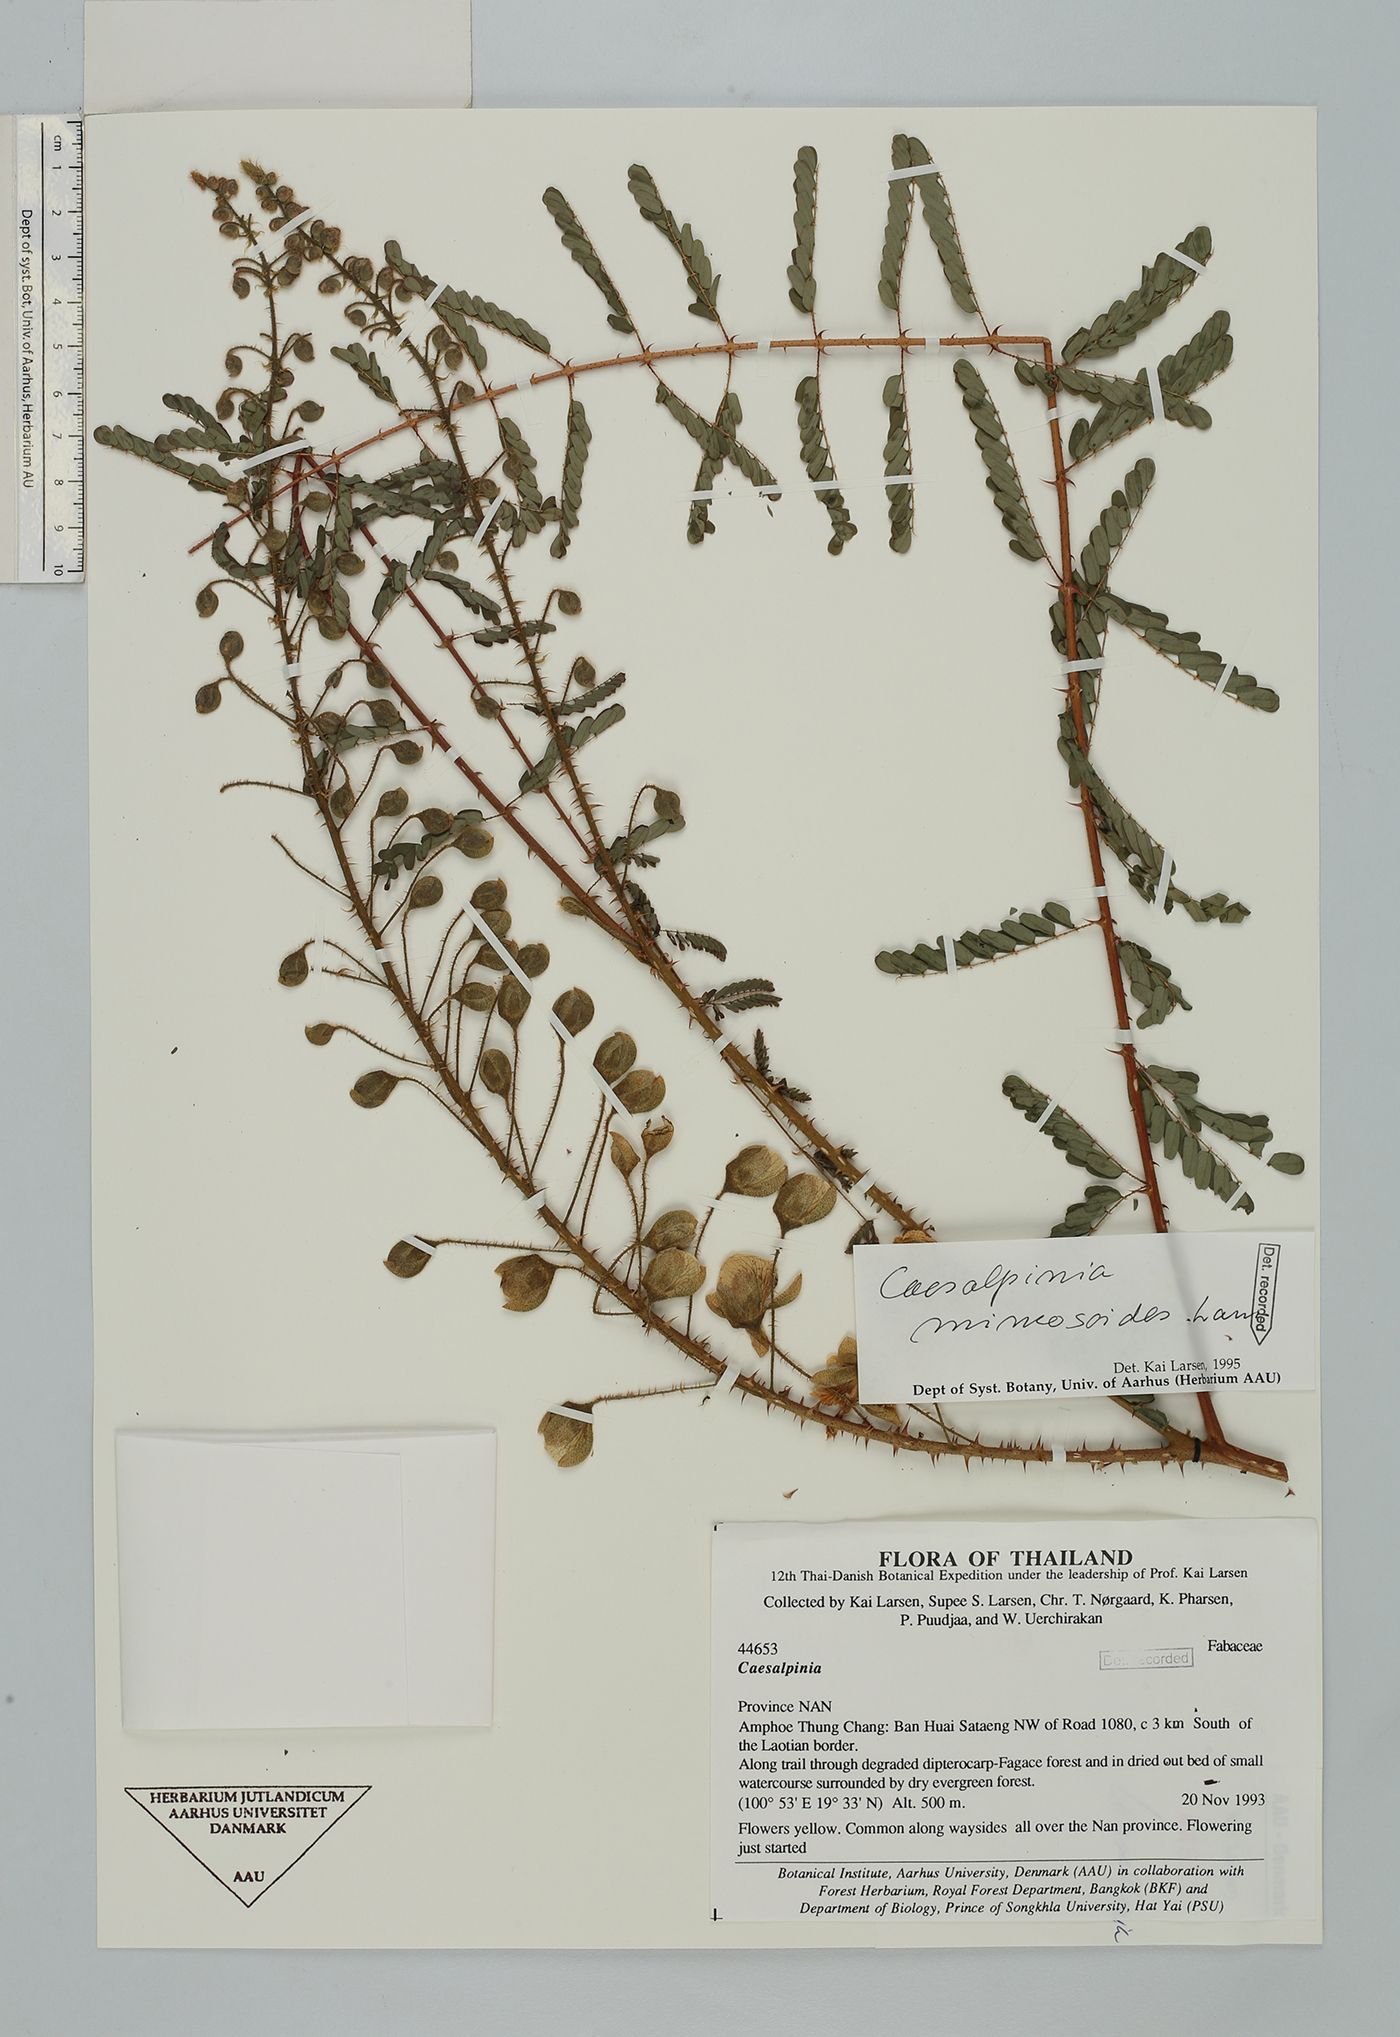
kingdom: Plantae
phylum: Tracheophyta
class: Magnoliopsida
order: Fabales
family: Fabaceae
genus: Hultholia
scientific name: Hultholia mimosoides
